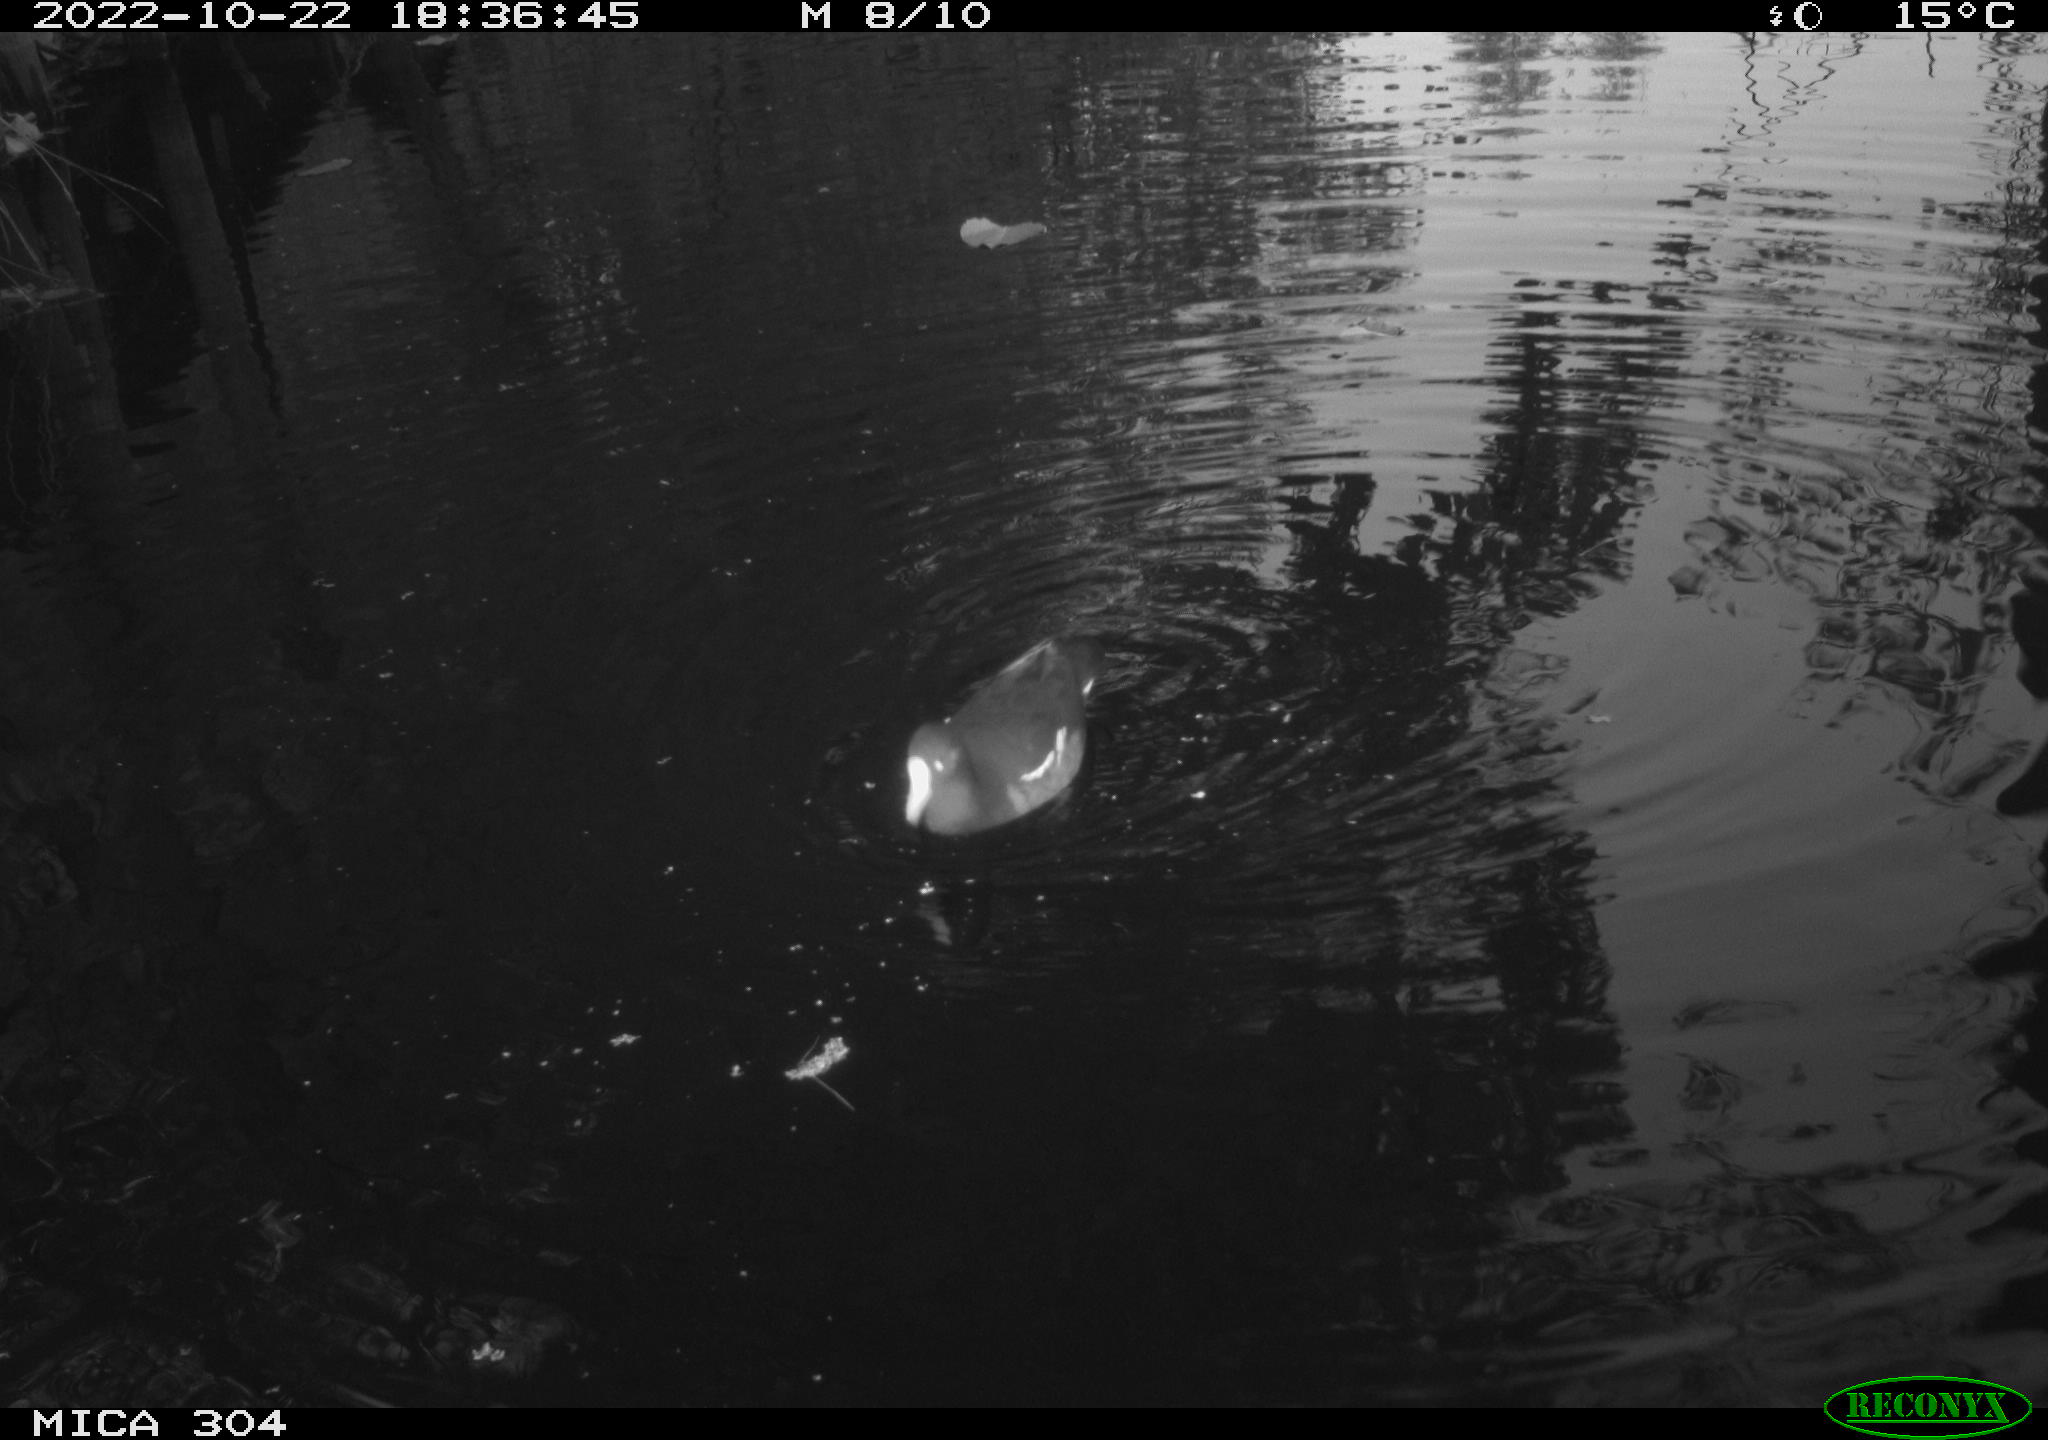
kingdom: Animalia
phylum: Chordata
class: Aves
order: Gruiformes
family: Rallidae
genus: Gallinula
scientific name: Gallinula chloropus
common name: Common moorhen
